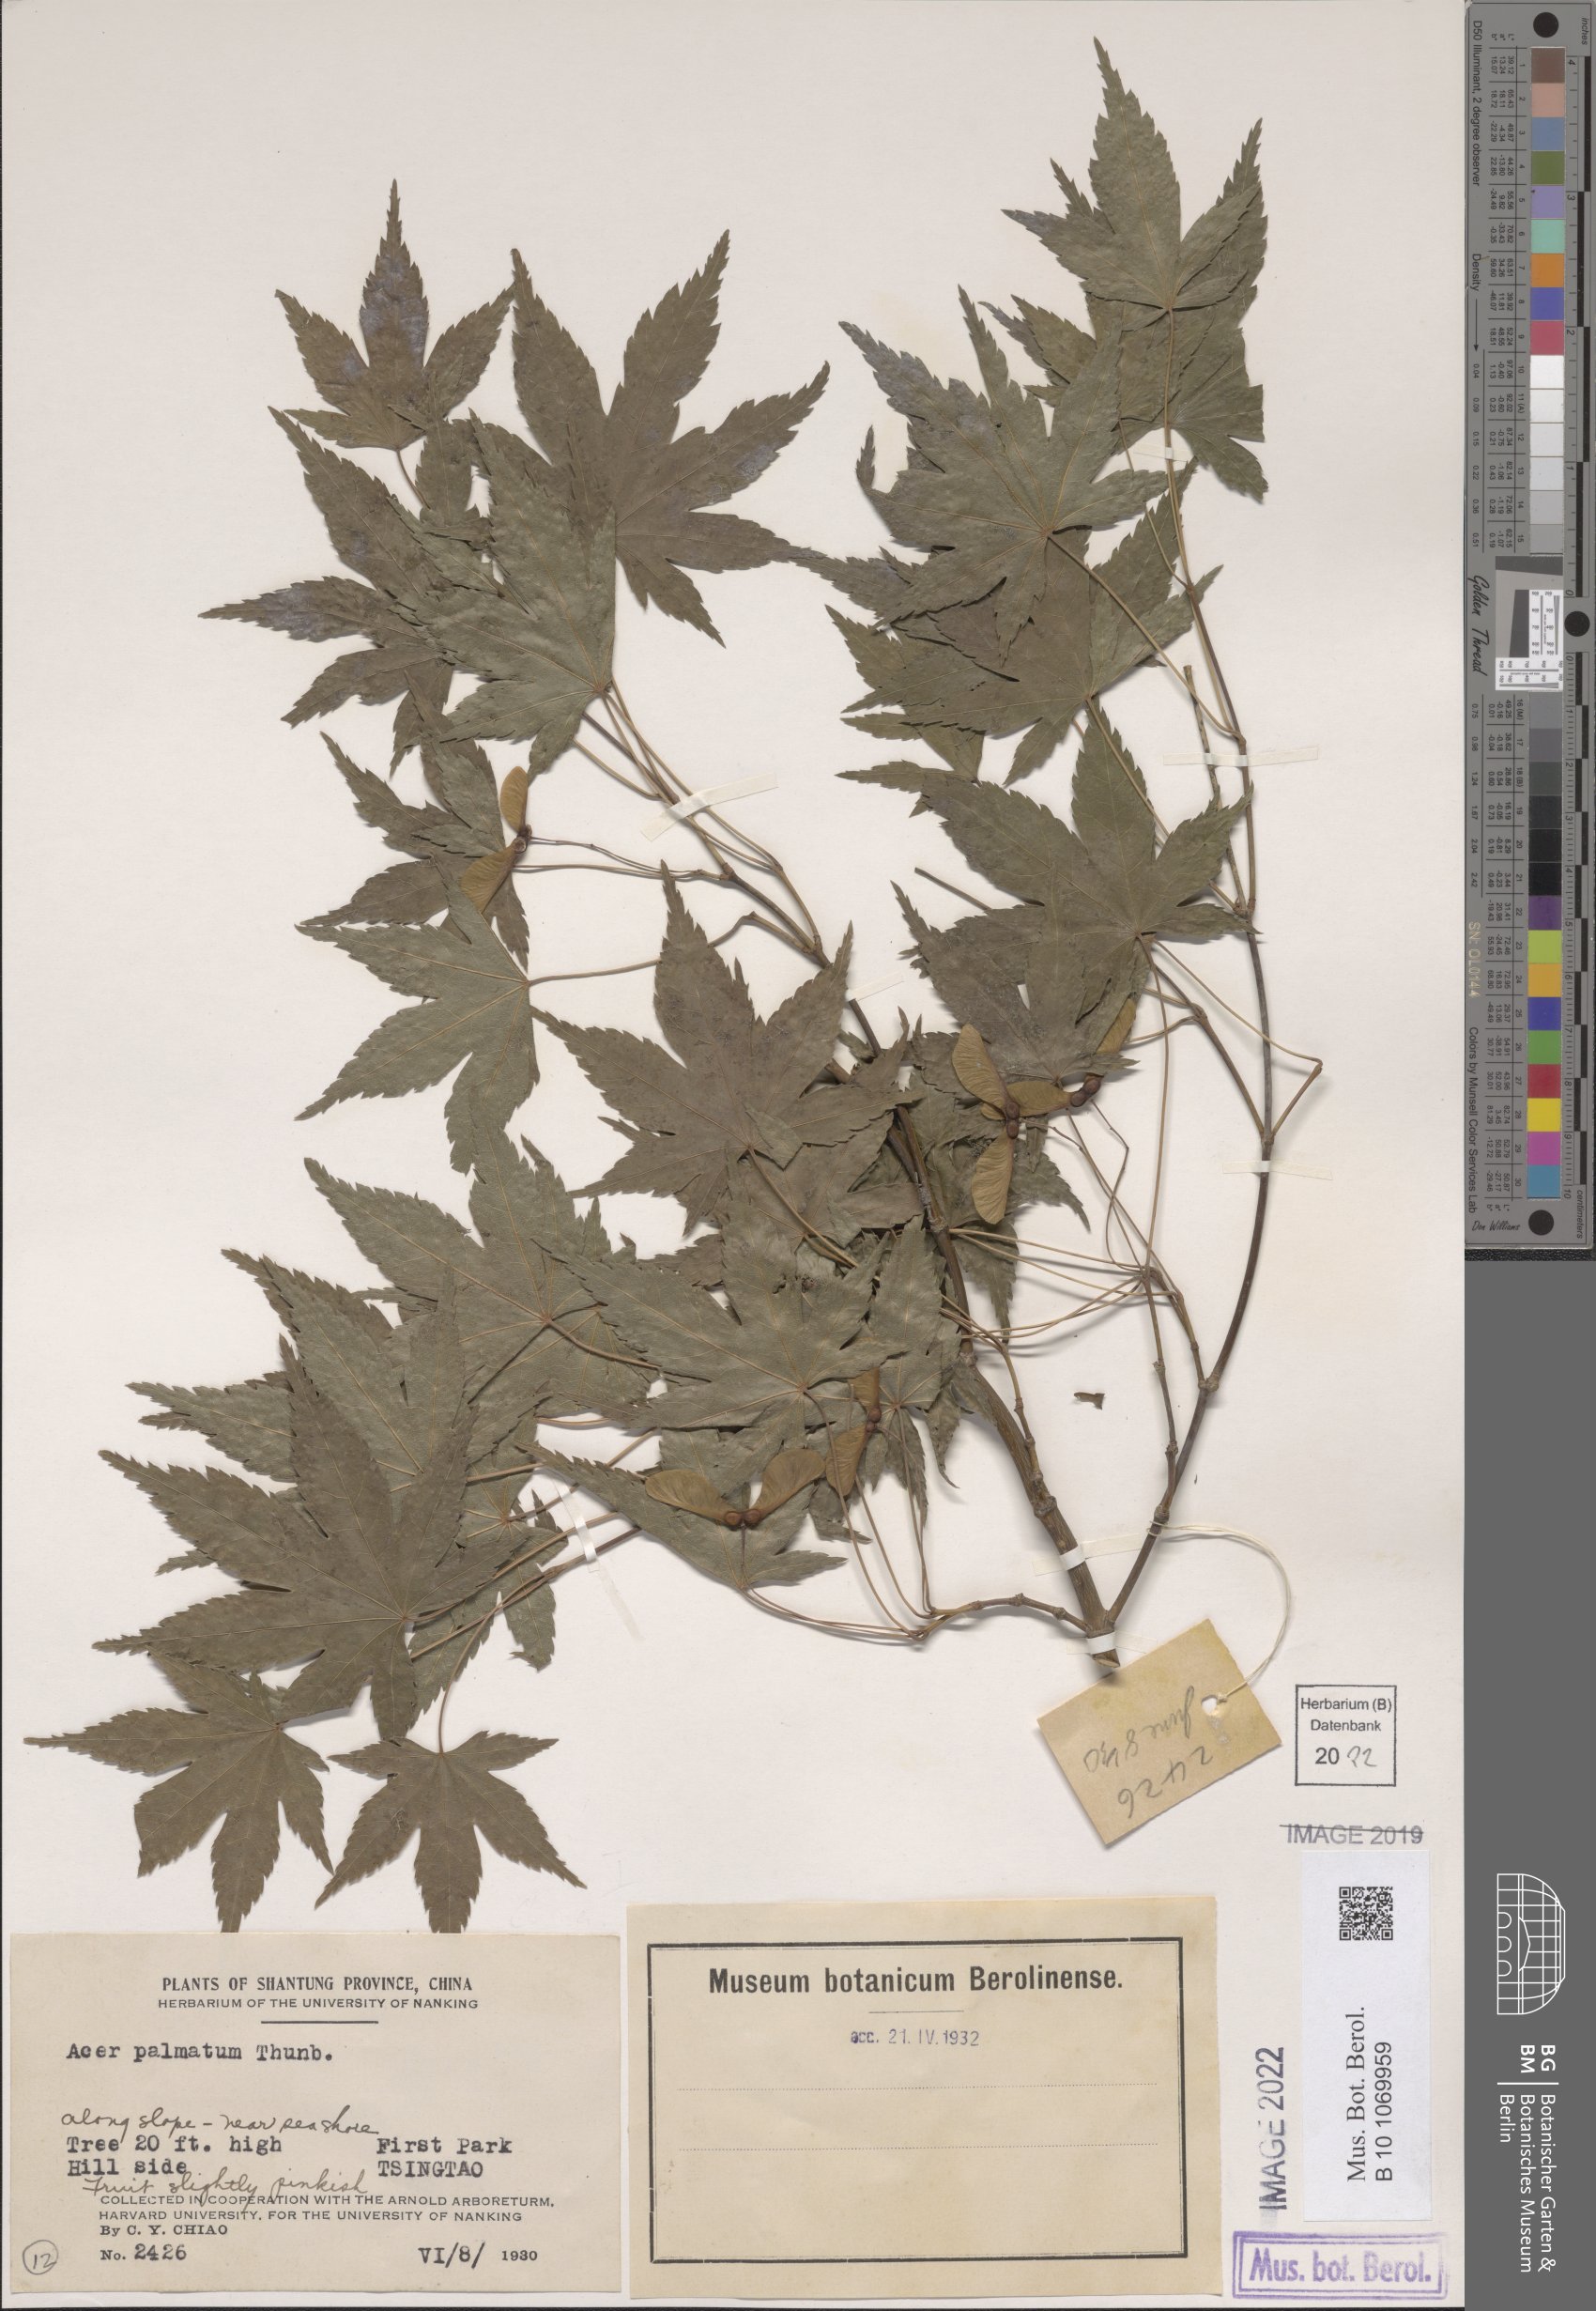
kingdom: Plantae
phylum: Tracheophyta
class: Magnoliopsida
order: Sapindales
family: Sapindaceae
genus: Acer
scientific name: Acer palmatum
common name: Japanese maple
